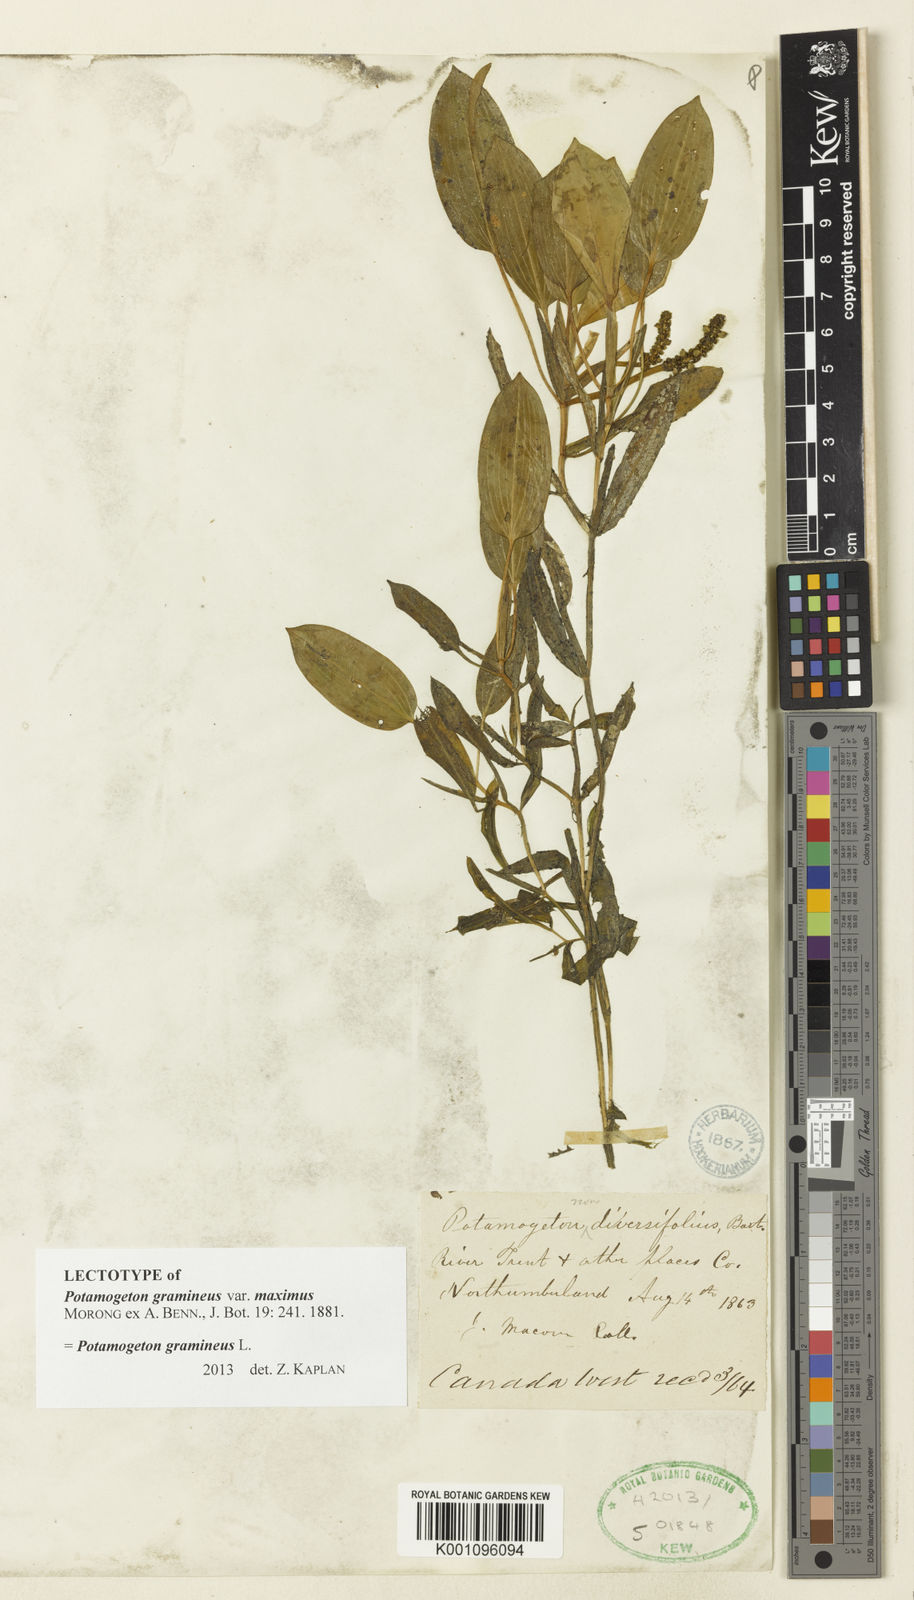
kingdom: Plantae
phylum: Tracheophyta
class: Liliopsida
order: Alismatales
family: Potamogetonaceae
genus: Potamogeton
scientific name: Potamogeton gramineus
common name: Various-leaved pondweed
